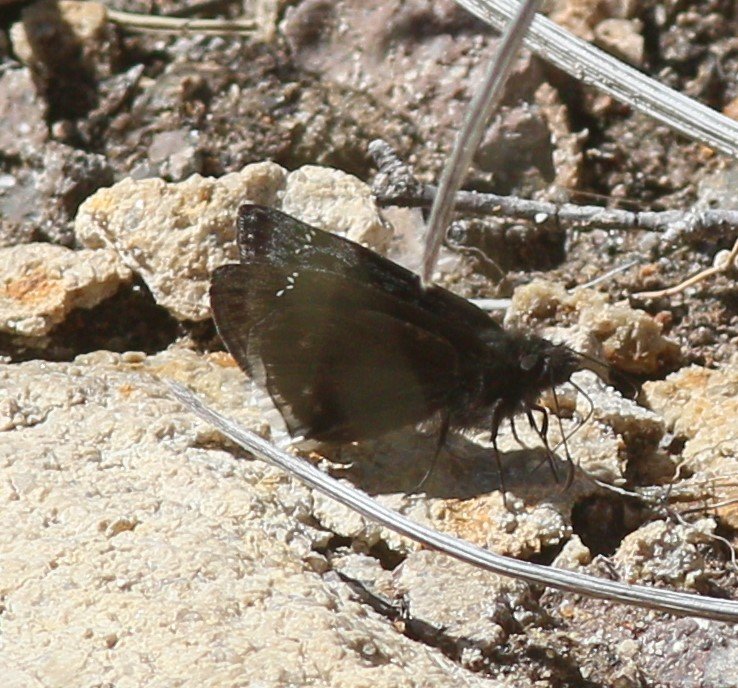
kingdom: Animalia
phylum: Arthropoda
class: Insecta
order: Lepidoptera
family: Hesperiidae
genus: Erynnis
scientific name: Erynnis tristis
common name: Mournful Duskywing
